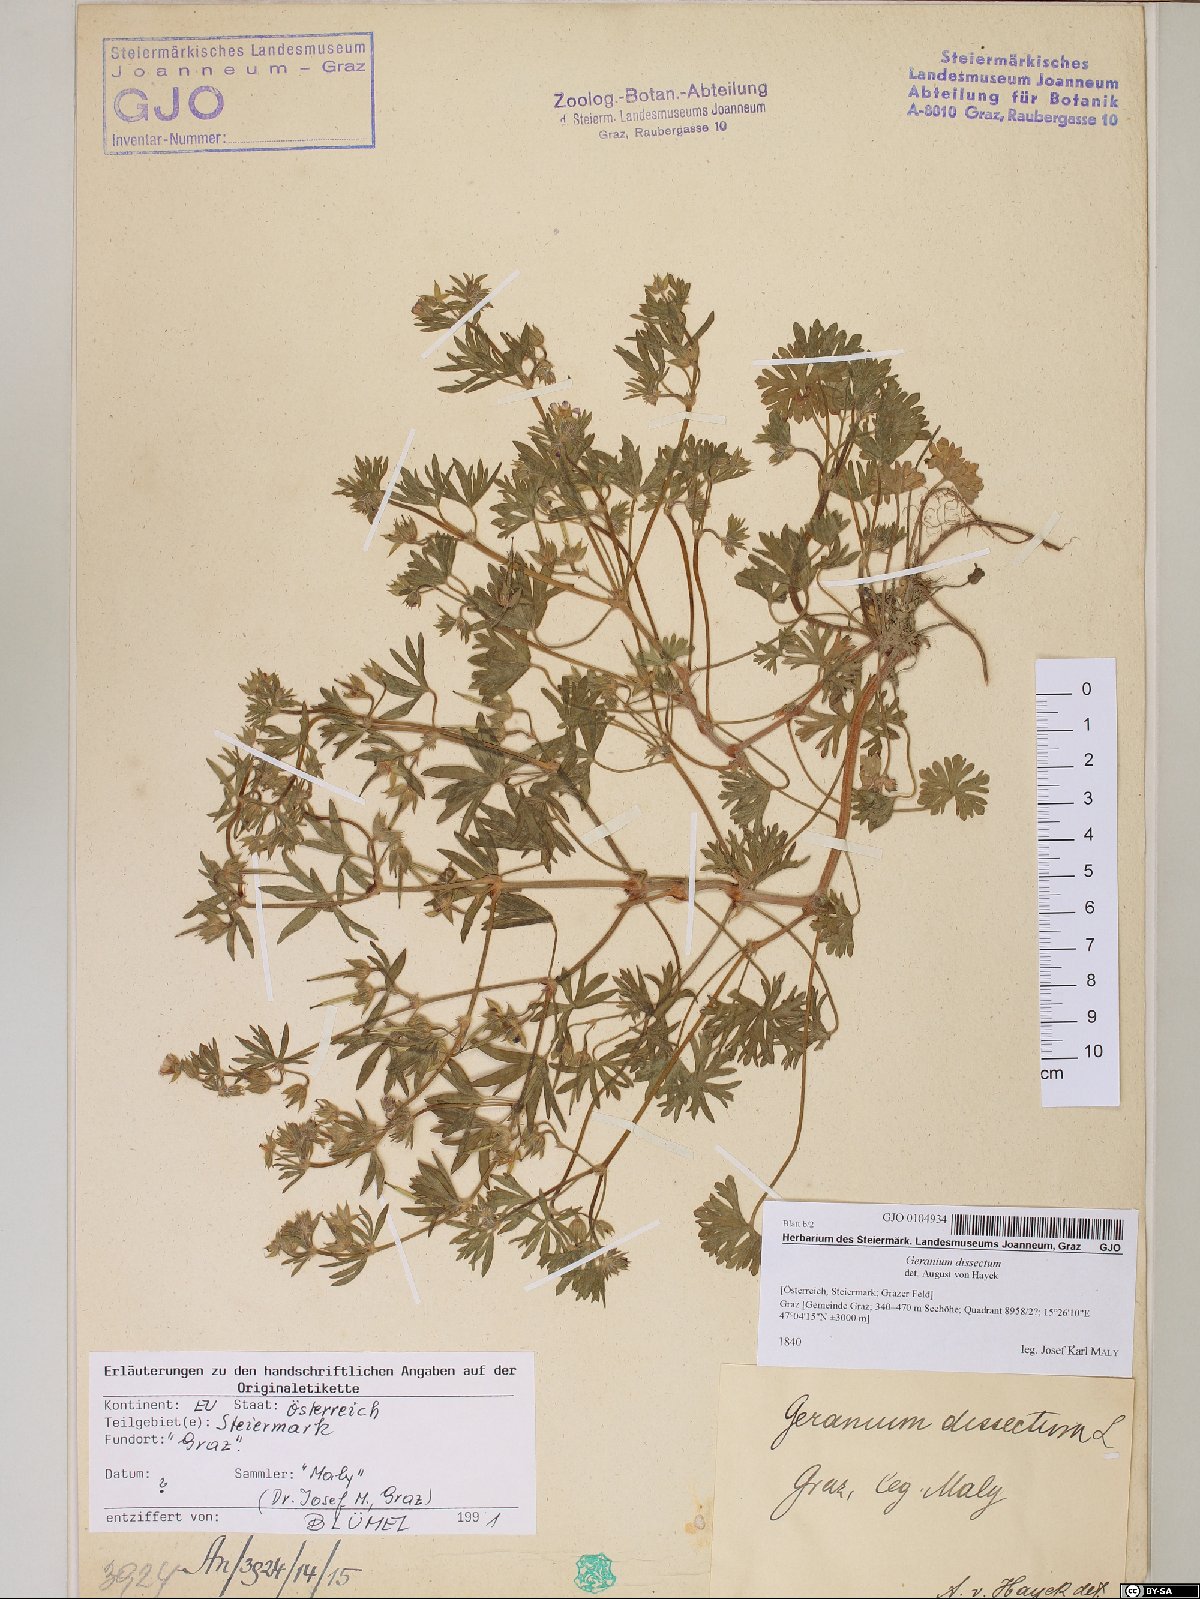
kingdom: Plantae
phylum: Tracheophyta
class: Magnoliopsida
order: Geraniales
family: Geraniaceae
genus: Geranium
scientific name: Geranium dissectum
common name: Cut-leaved crane's-bill
